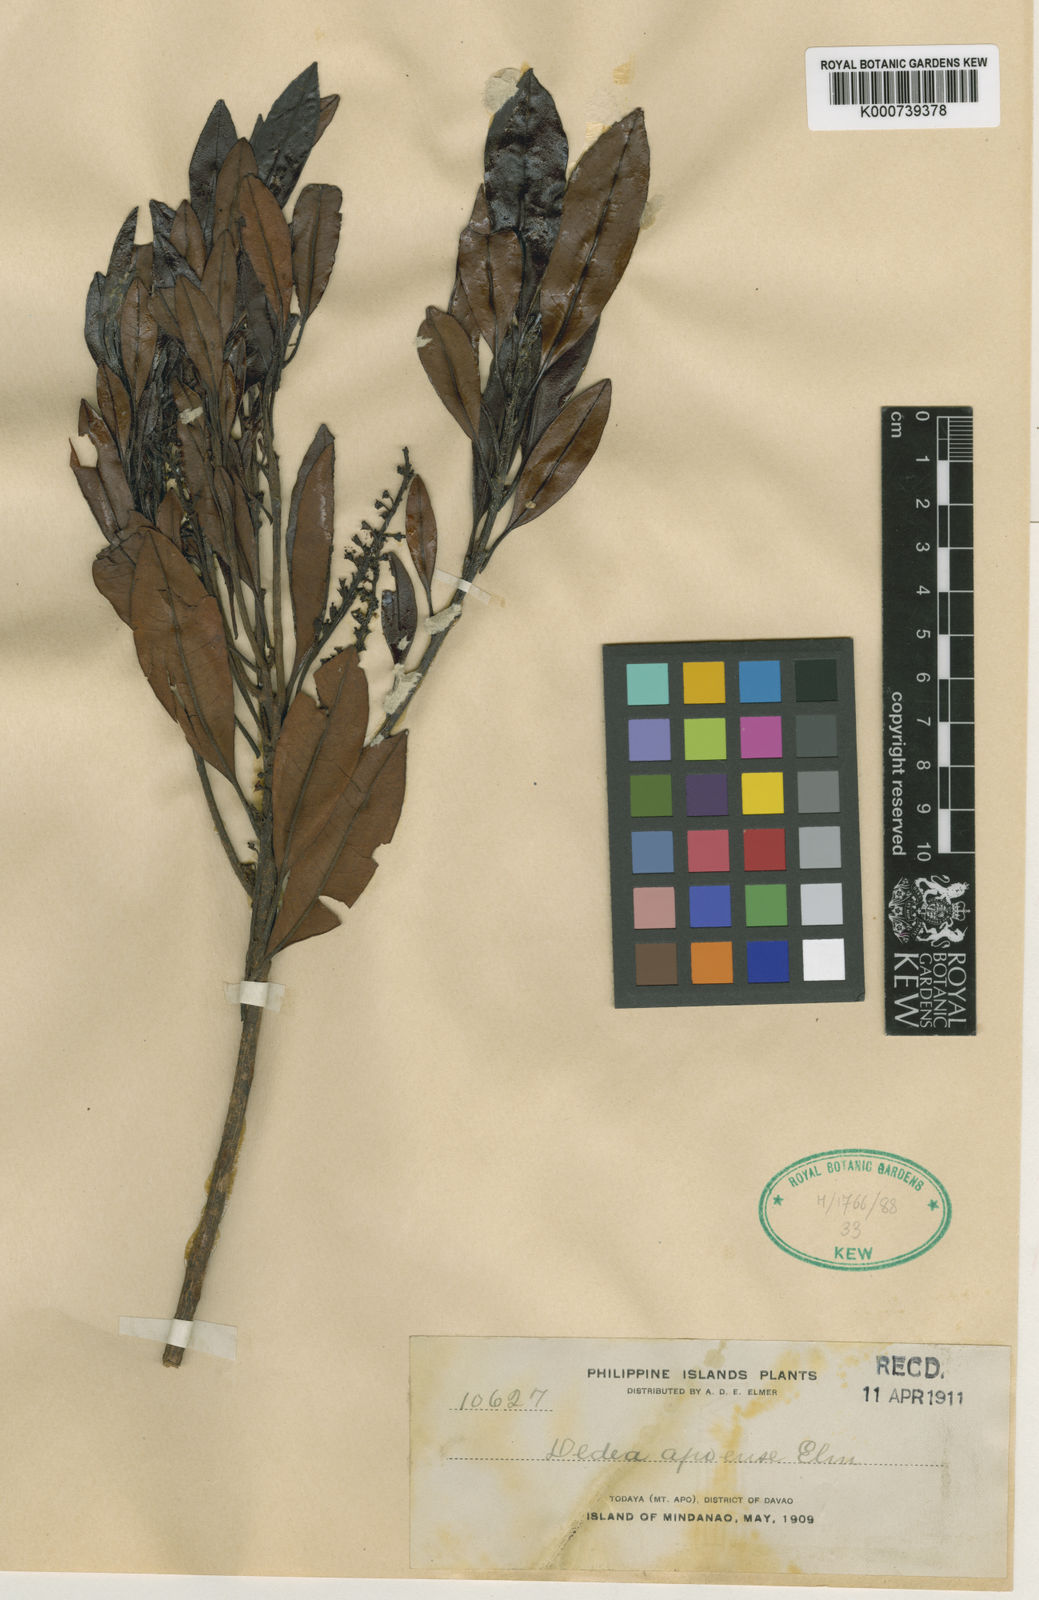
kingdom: Plantae
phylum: Tracheophyta
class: Magnoliopsida
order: Paracryphiales
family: Paracryphiaceae
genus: Quintinia
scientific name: Quintinia apoensis
